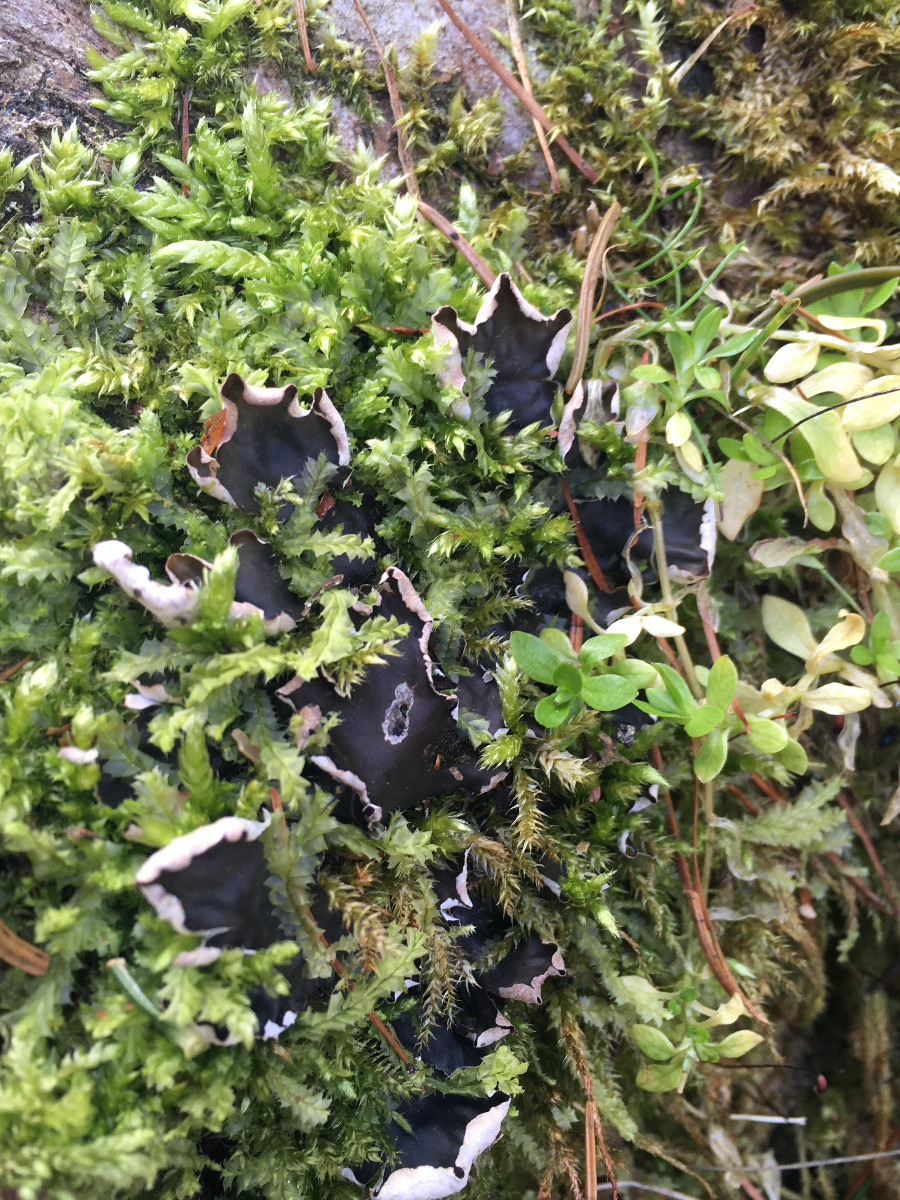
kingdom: Fungi
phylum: Ascomycota
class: Lecanoromycetes
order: Peltigerales
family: Peltigeraceae
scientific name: Peltigeraceae
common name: skjoldlavfamilien
